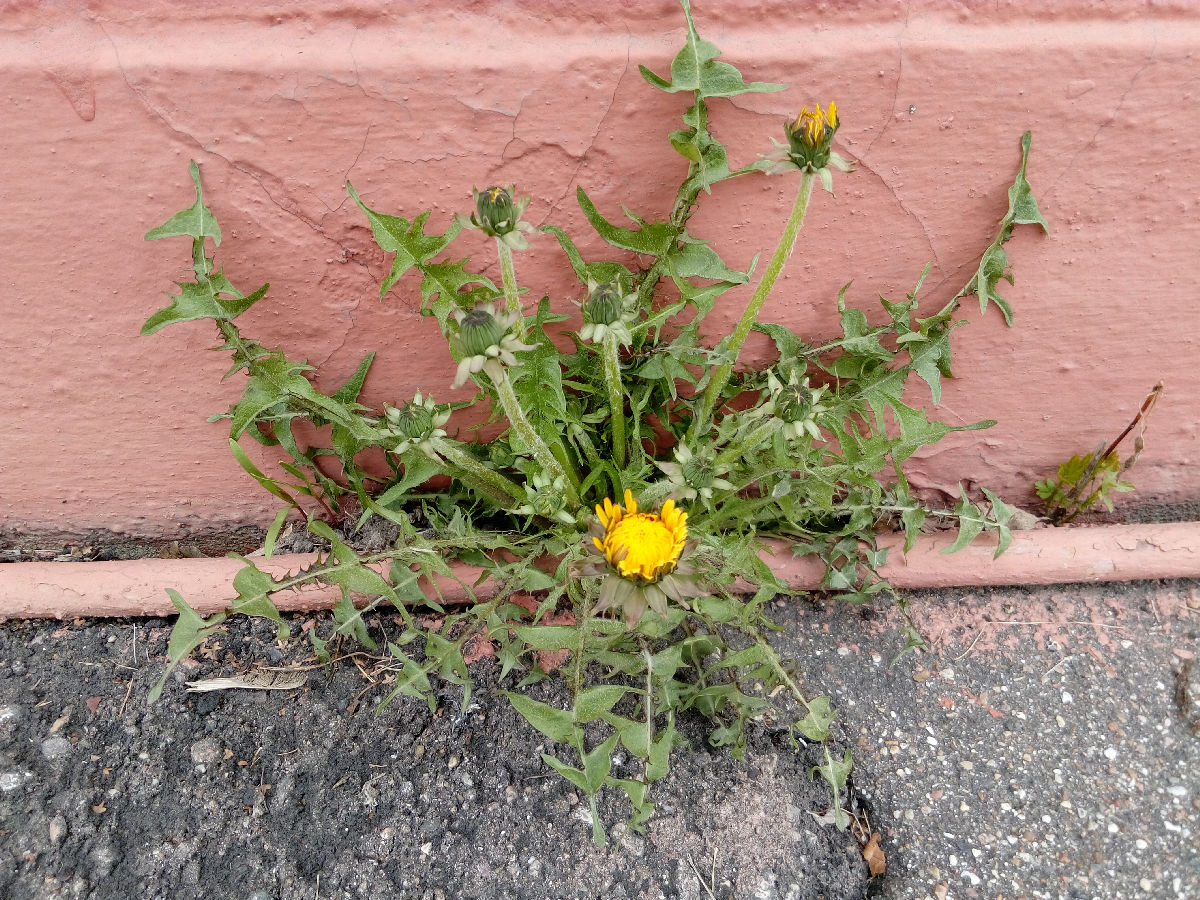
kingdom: Plantae
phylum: Tracheophyta
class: Magnoliopsida
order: Asterales
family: Asteraceae
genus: Taraxacum
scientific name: Taraxacum officinale
